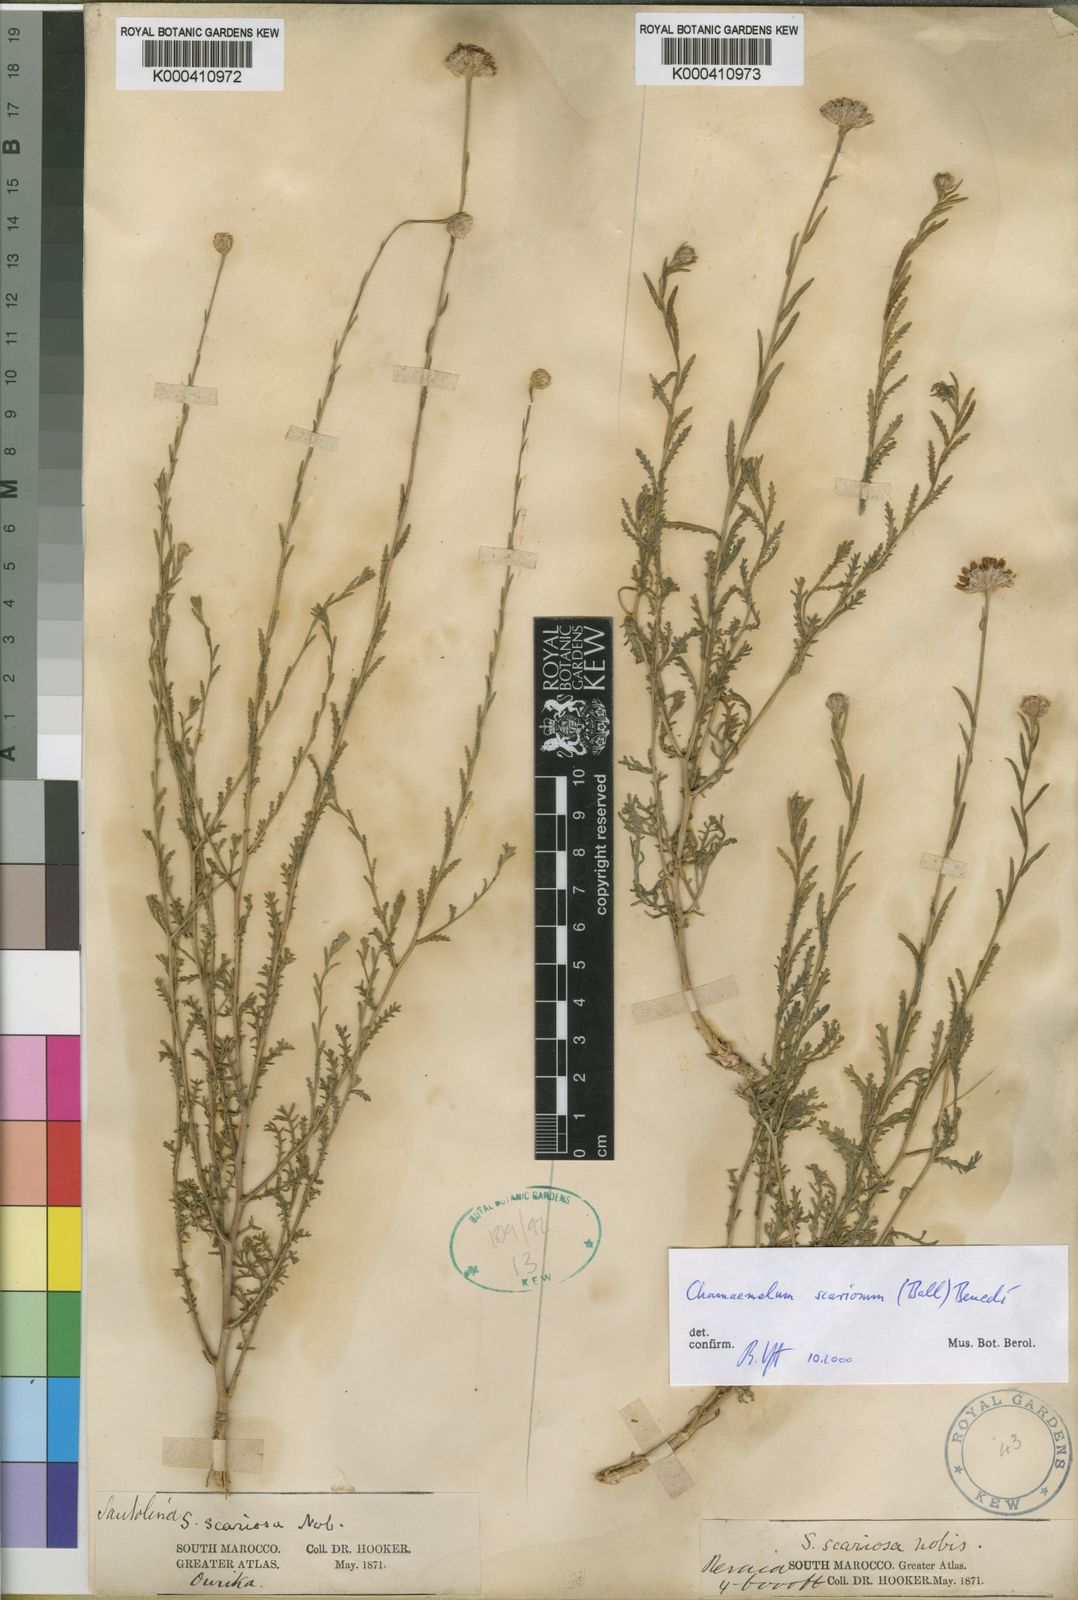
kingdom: Plantae
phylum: Tracheophyta
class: Magnoliopsida
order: Asterales
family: Asteraceae
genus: Chamaemelum
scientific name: Chamaemelum
